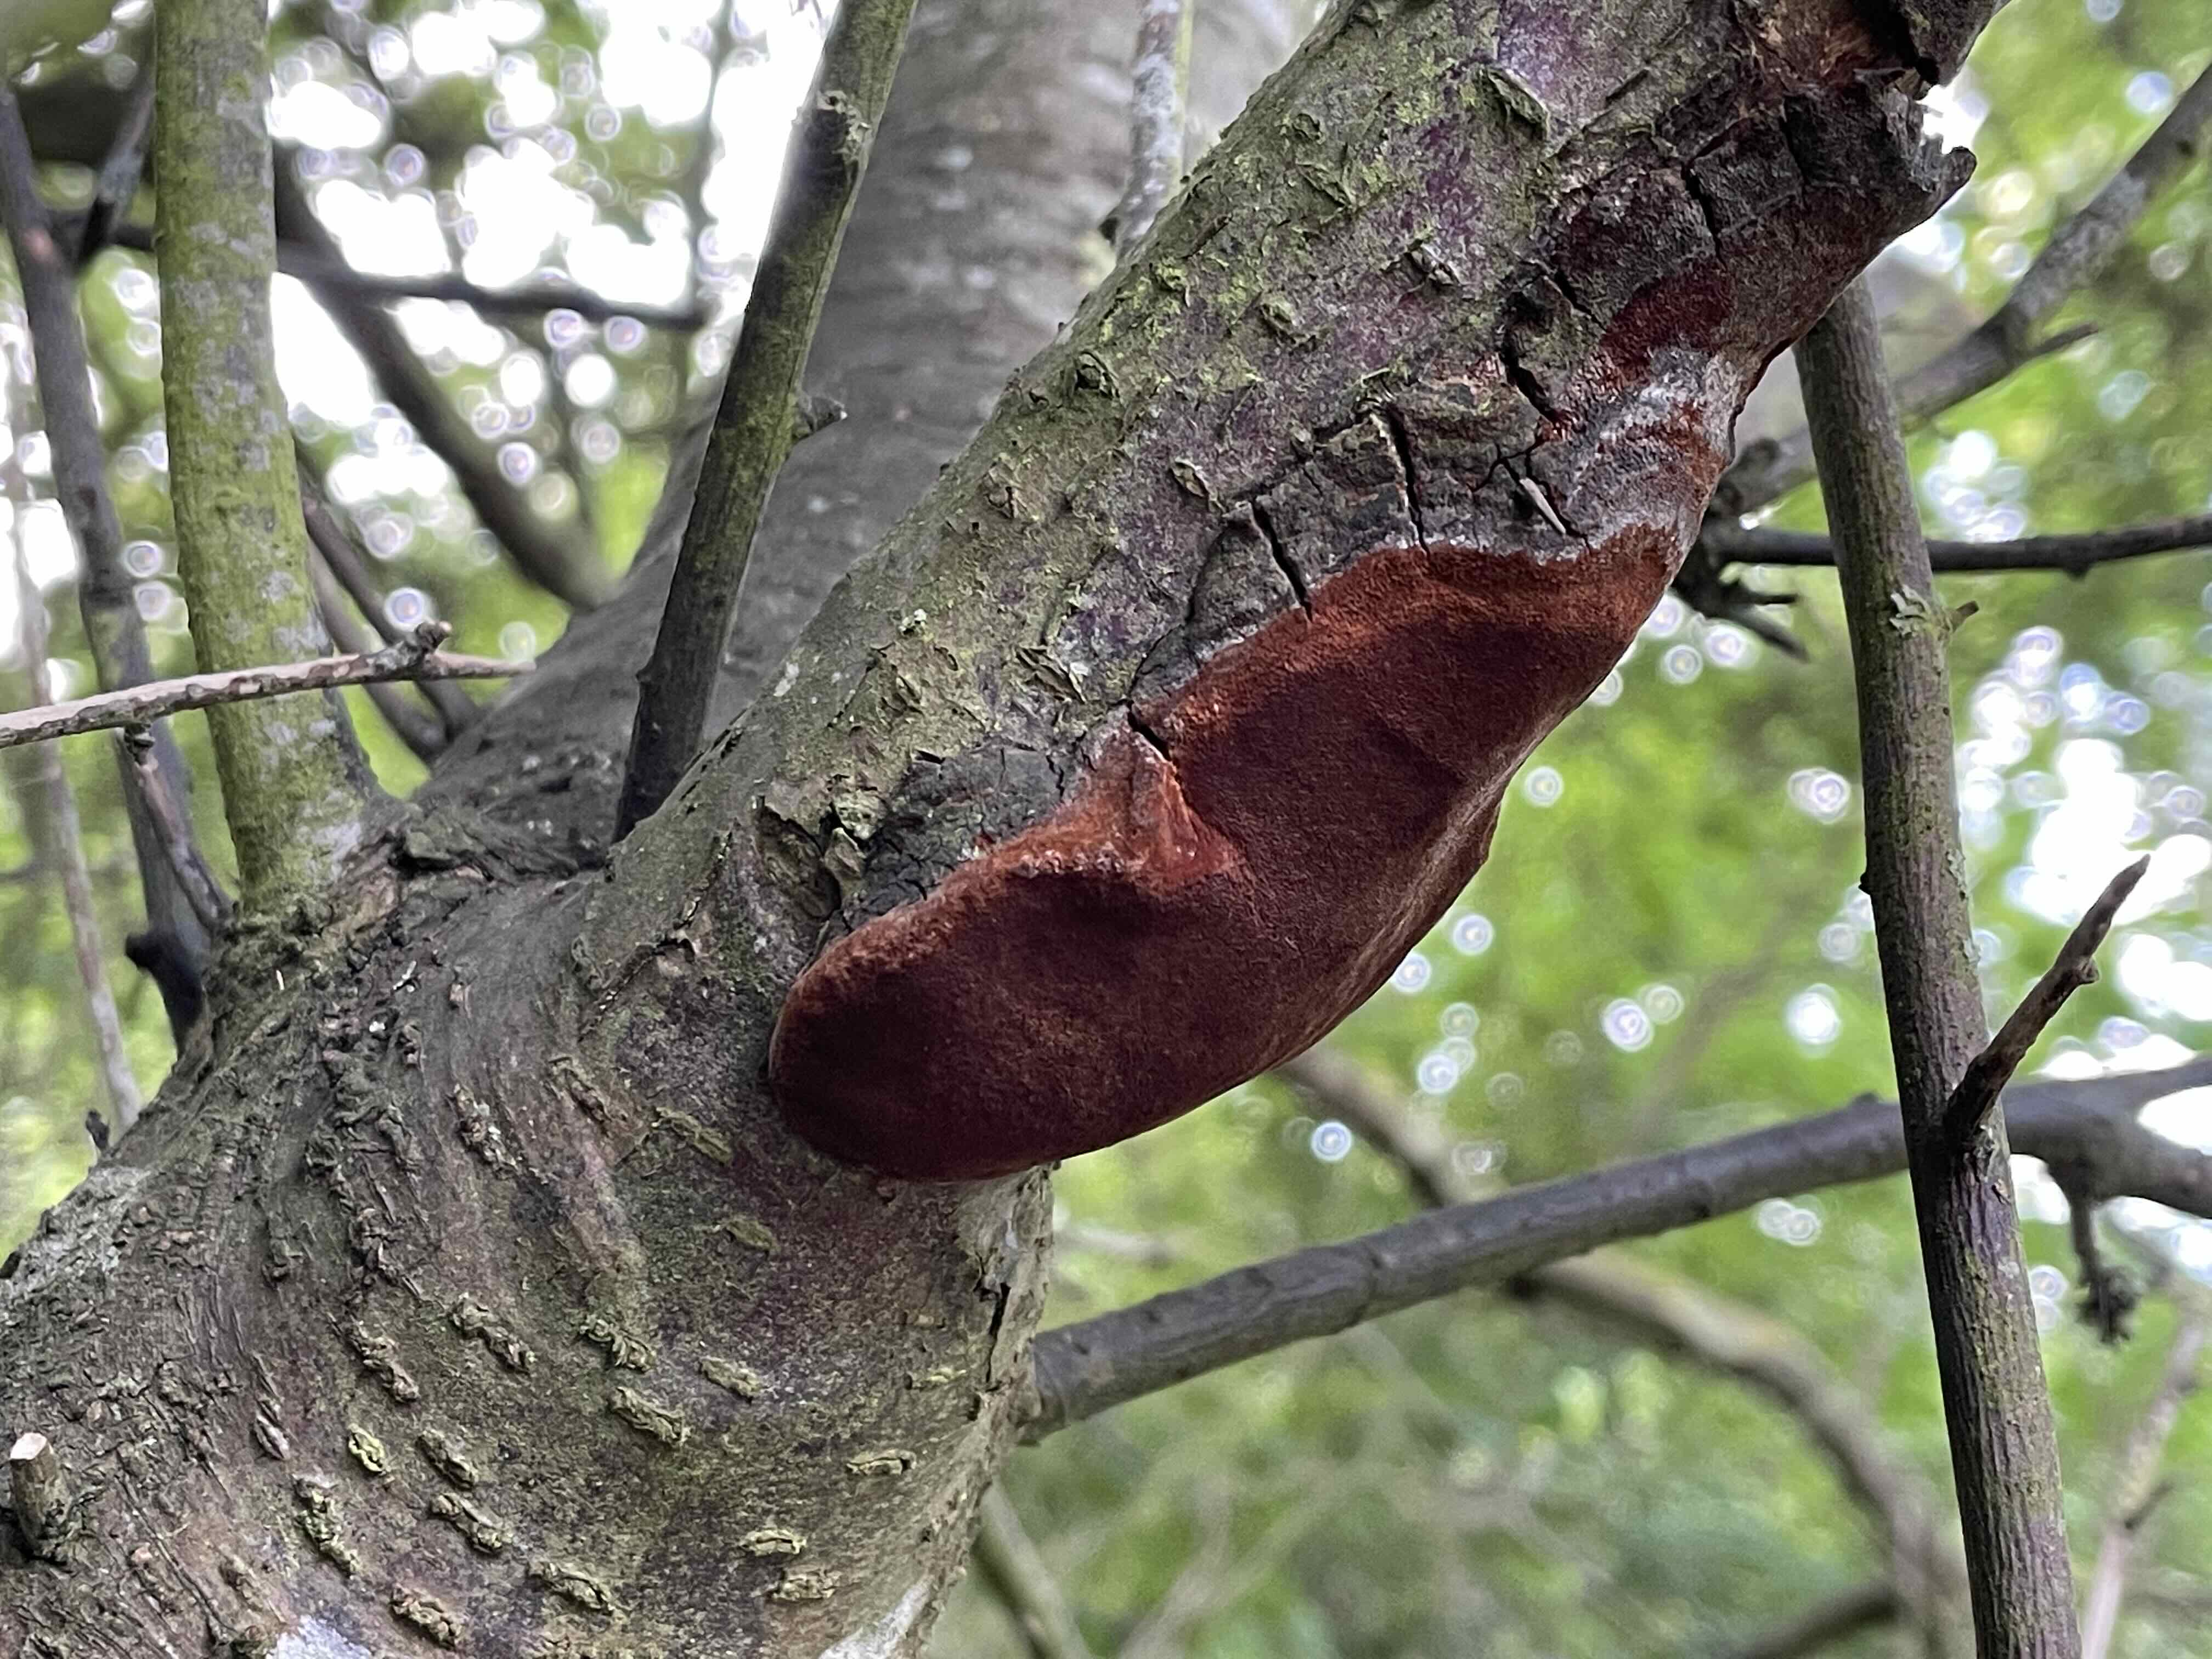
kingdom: Fungi
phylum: Basidiomycota
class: Agaricomycetes
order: Hymenochaetales
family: Hymenochaetaceae
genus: Phellinus
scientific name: Phellinus pomaceus
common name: blomme-ildporesvamp
